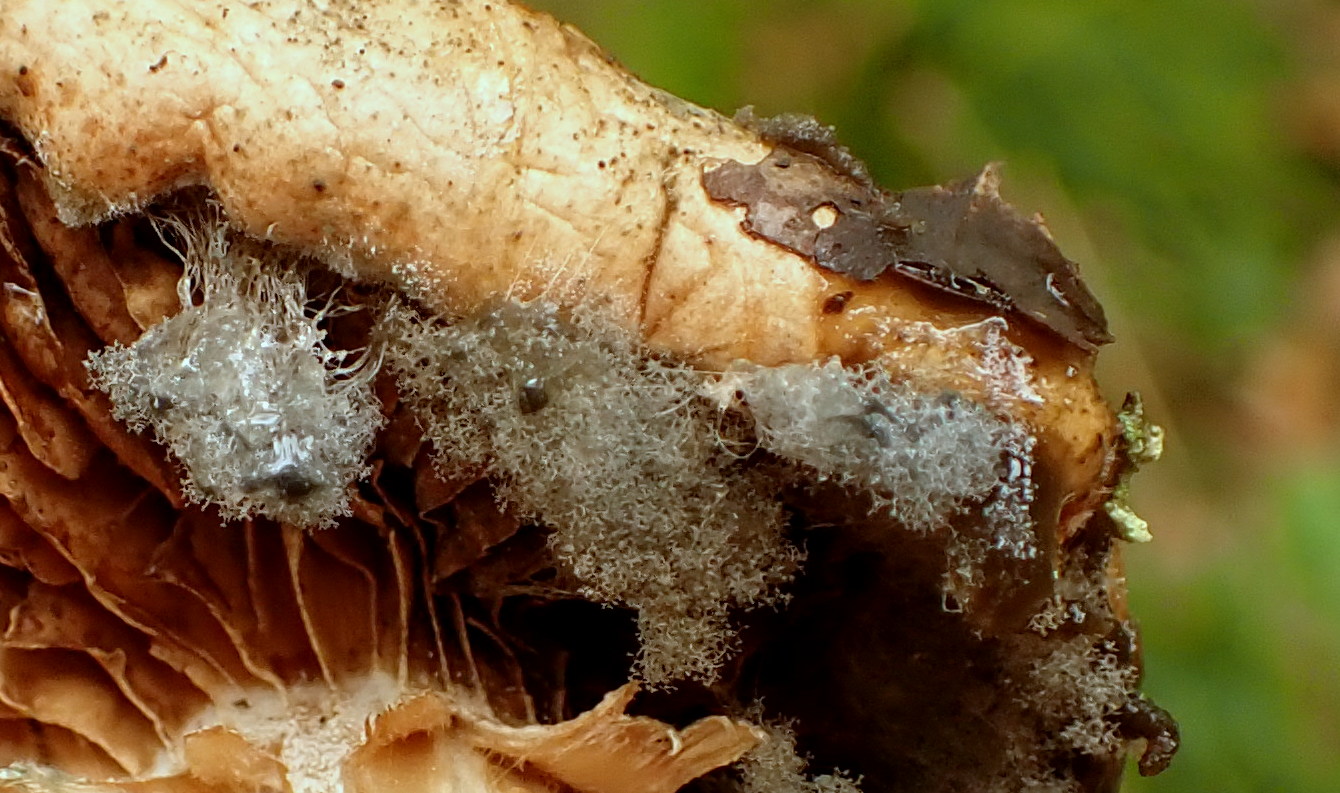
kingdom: Fungi
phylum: Mucoromycota
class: Mucoromycetes
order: Mucorales
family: Rhizopodaceae
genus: Syzygites
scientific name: Syzygites megalocarpus
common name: nissenål
